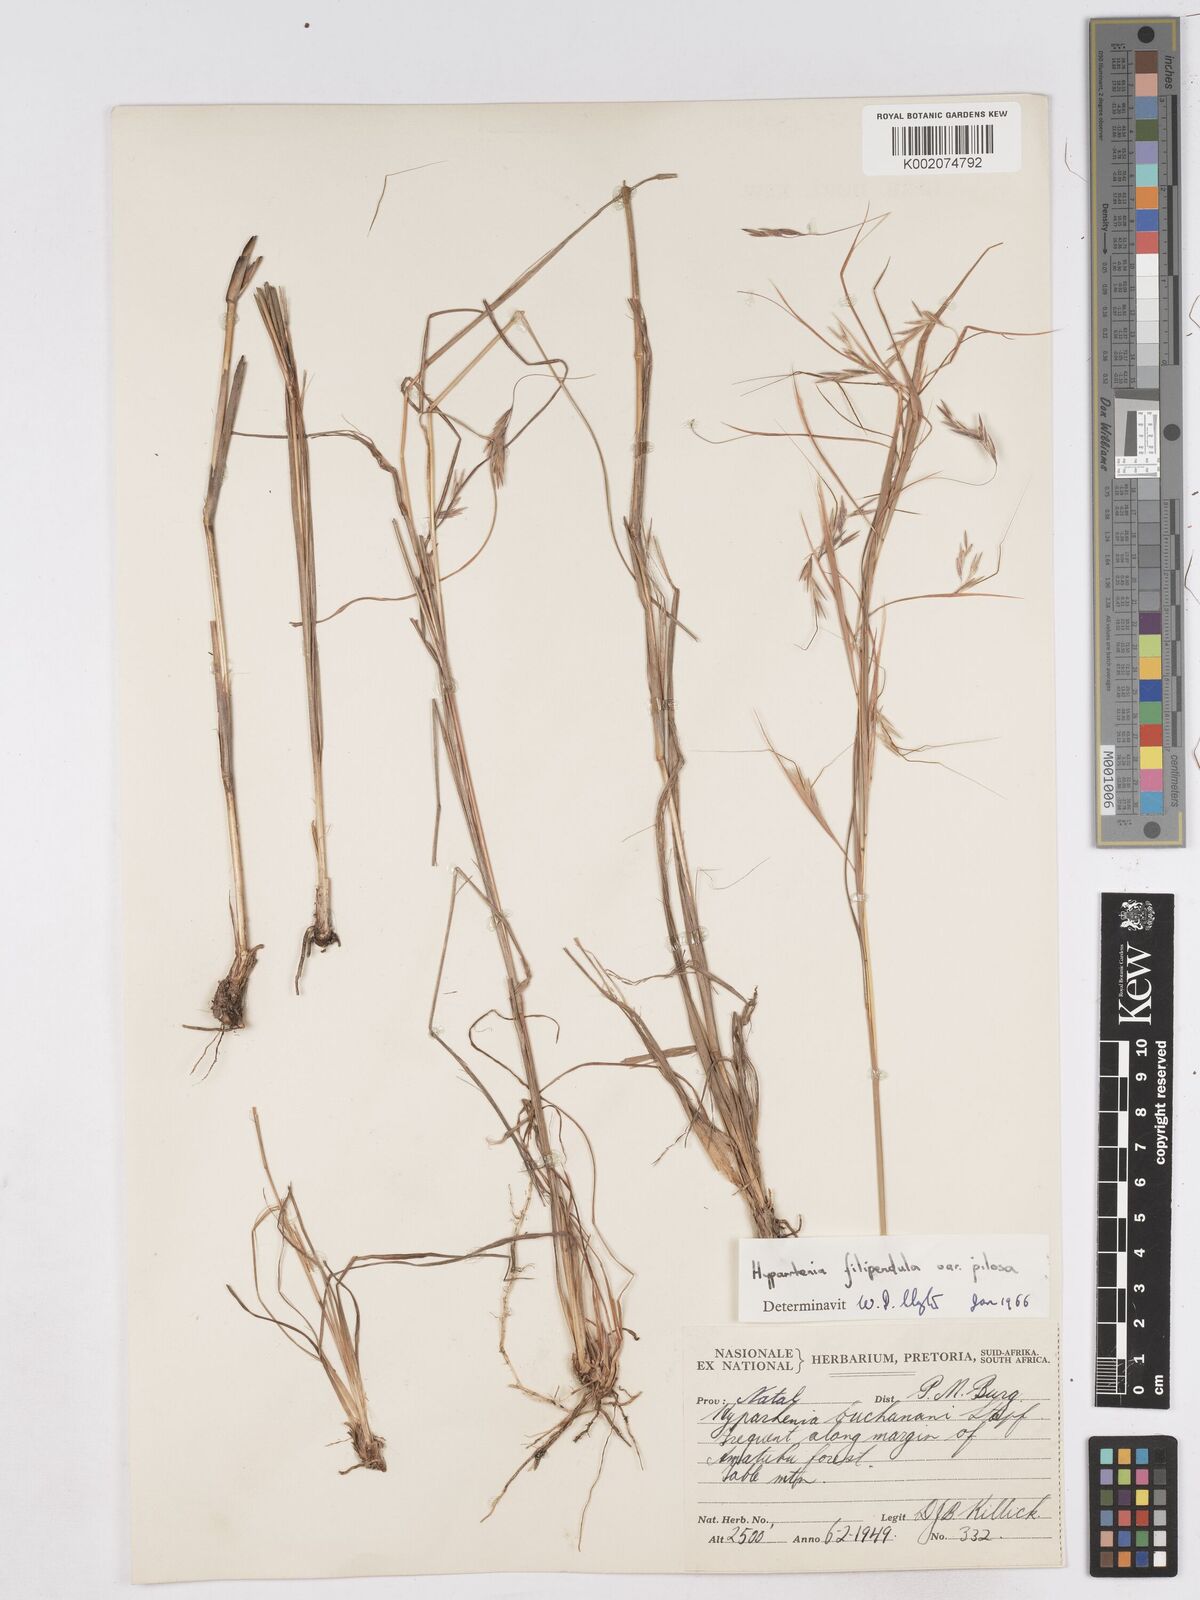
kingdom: Plantae
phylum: Tracheophyta
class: Liliopsida
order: Poales
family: Poaceae
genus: Hyparrhenia
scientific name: Hyparrhenia filipendula
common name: Tambookie grass
